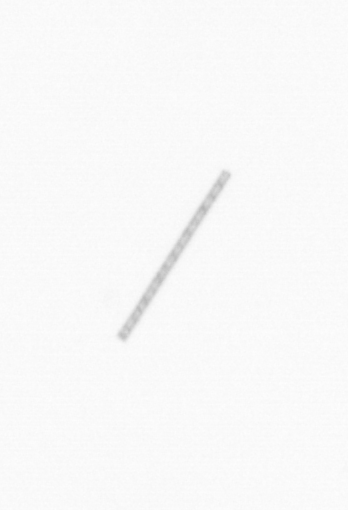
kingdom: Chromista
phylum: Ochrophyta
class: Bacillariophyceae
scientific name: Bacillariophyceae
